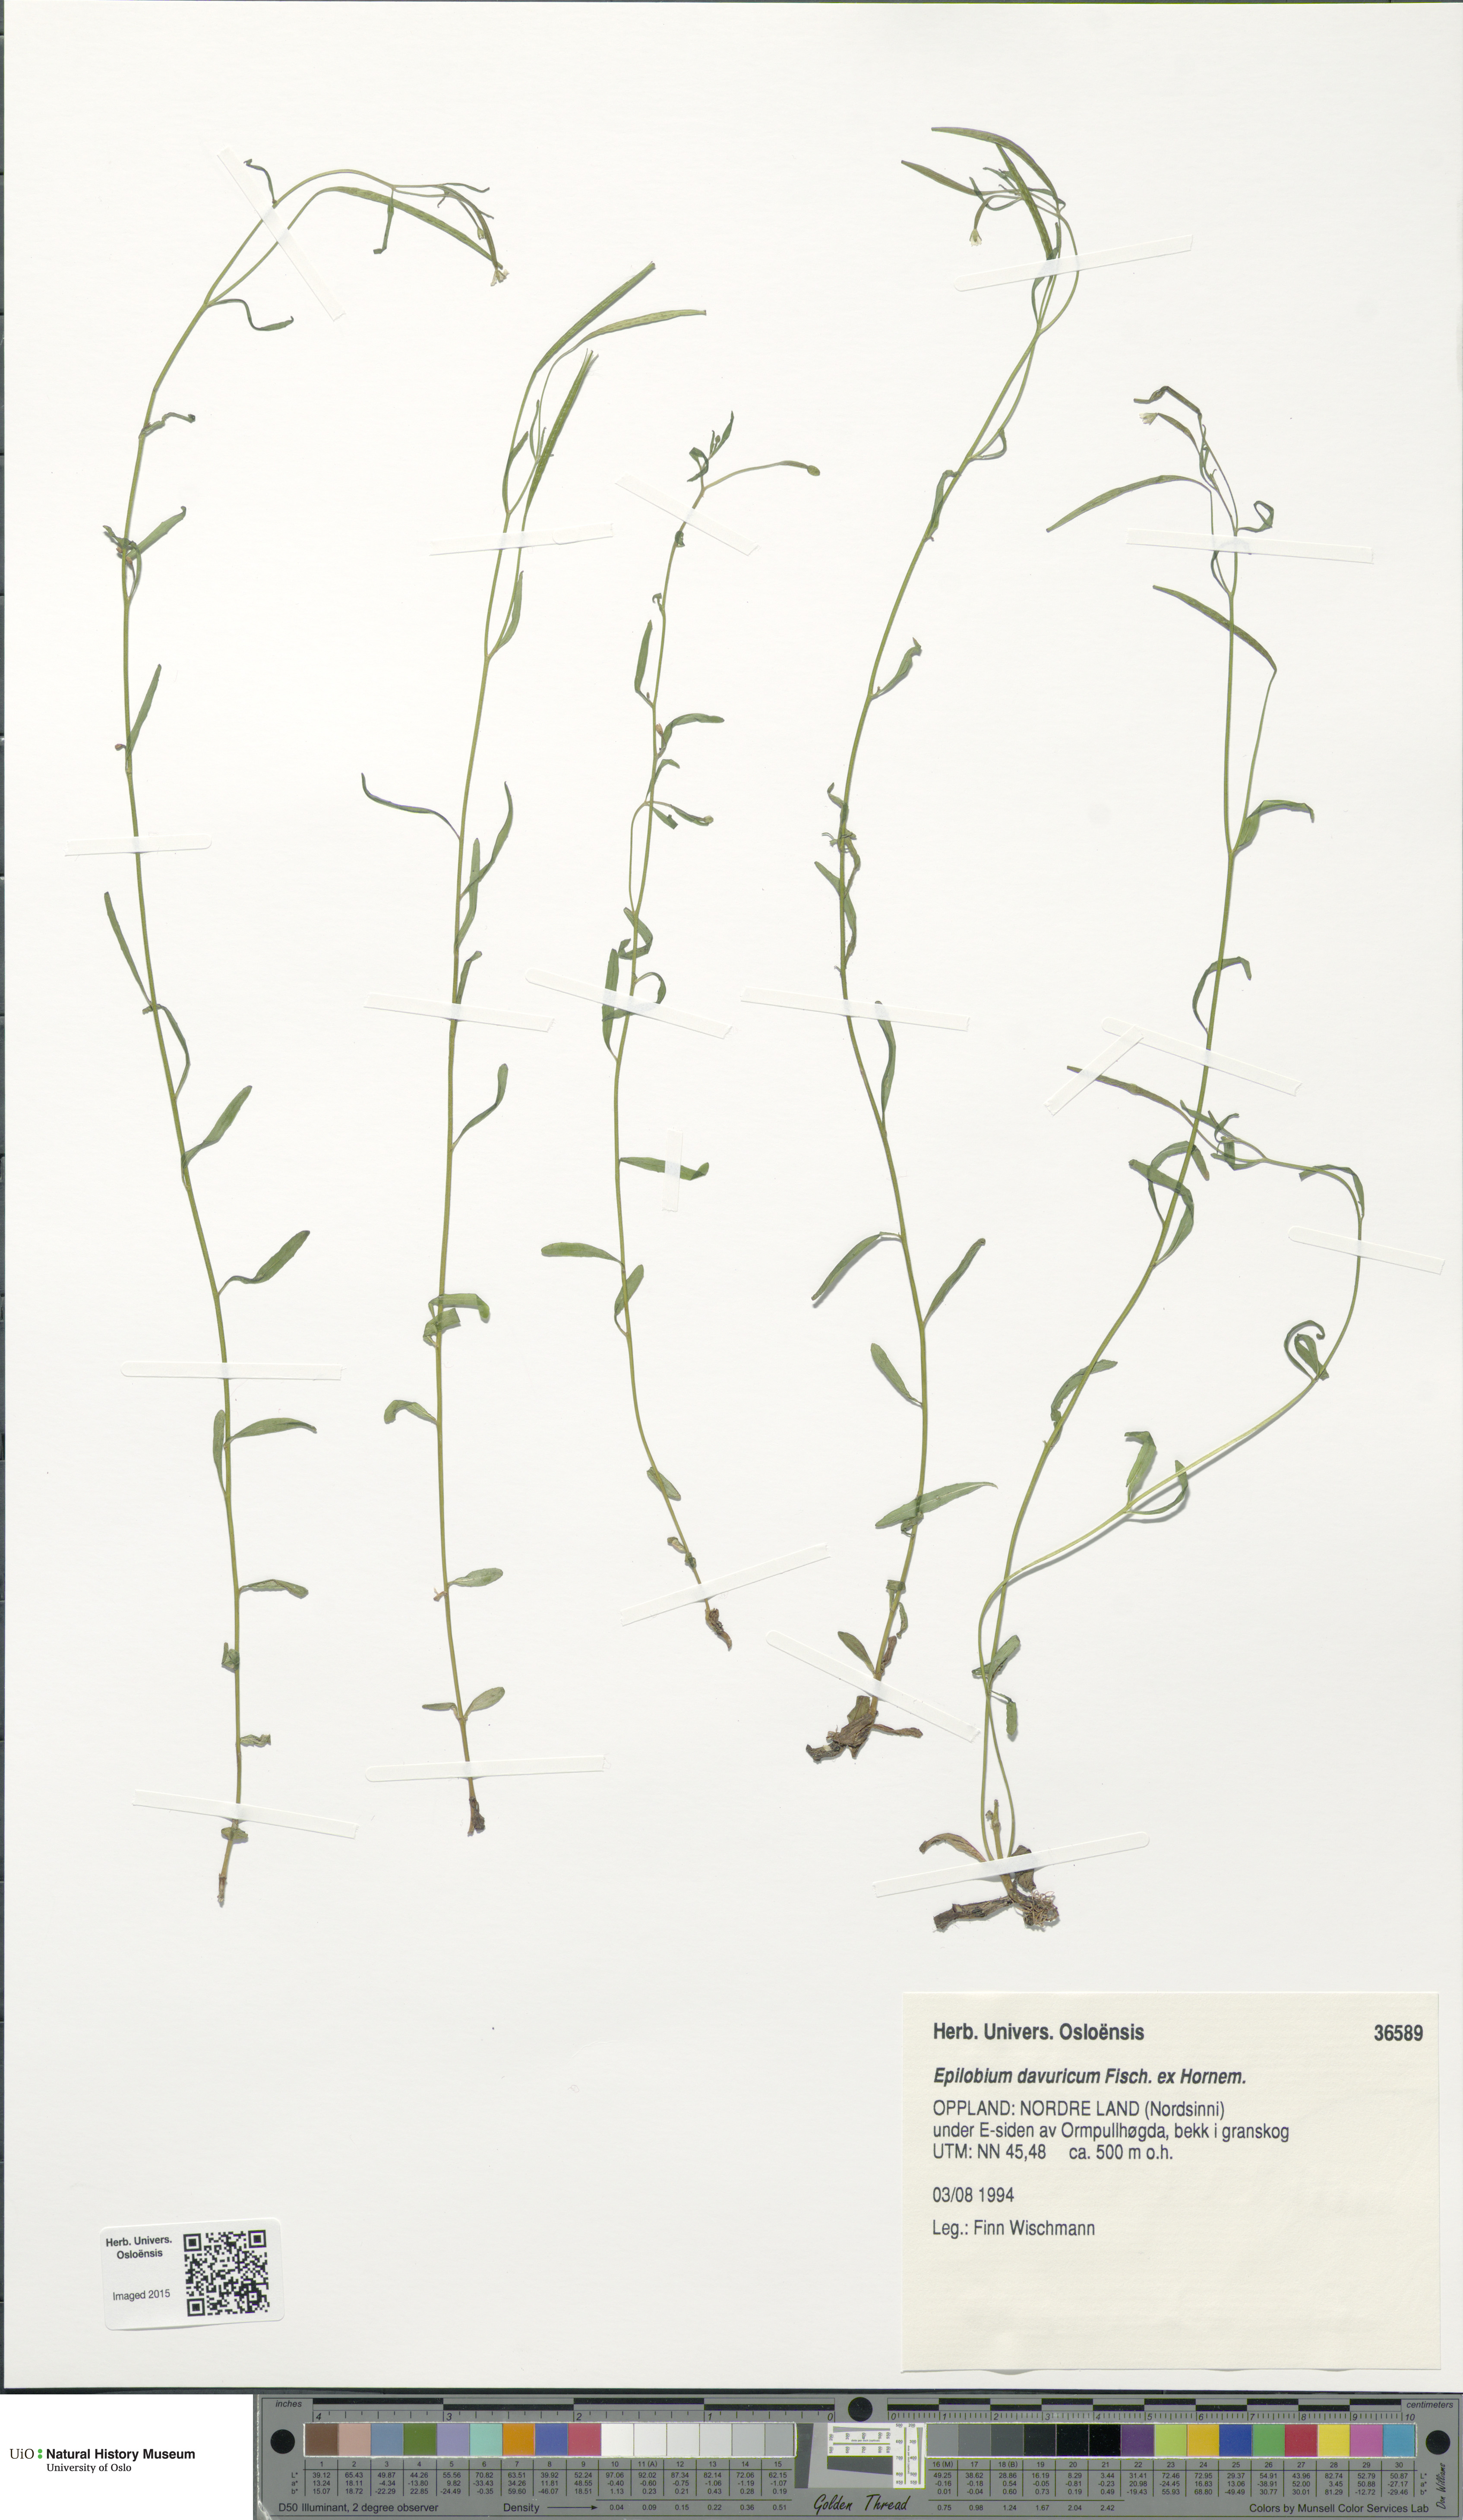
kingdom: Plantae
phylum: Tracheophyta
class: Magnoliopsida
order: Myrtales
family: Onagraceae
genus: Epilobium
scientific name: Epilobium davuricum
